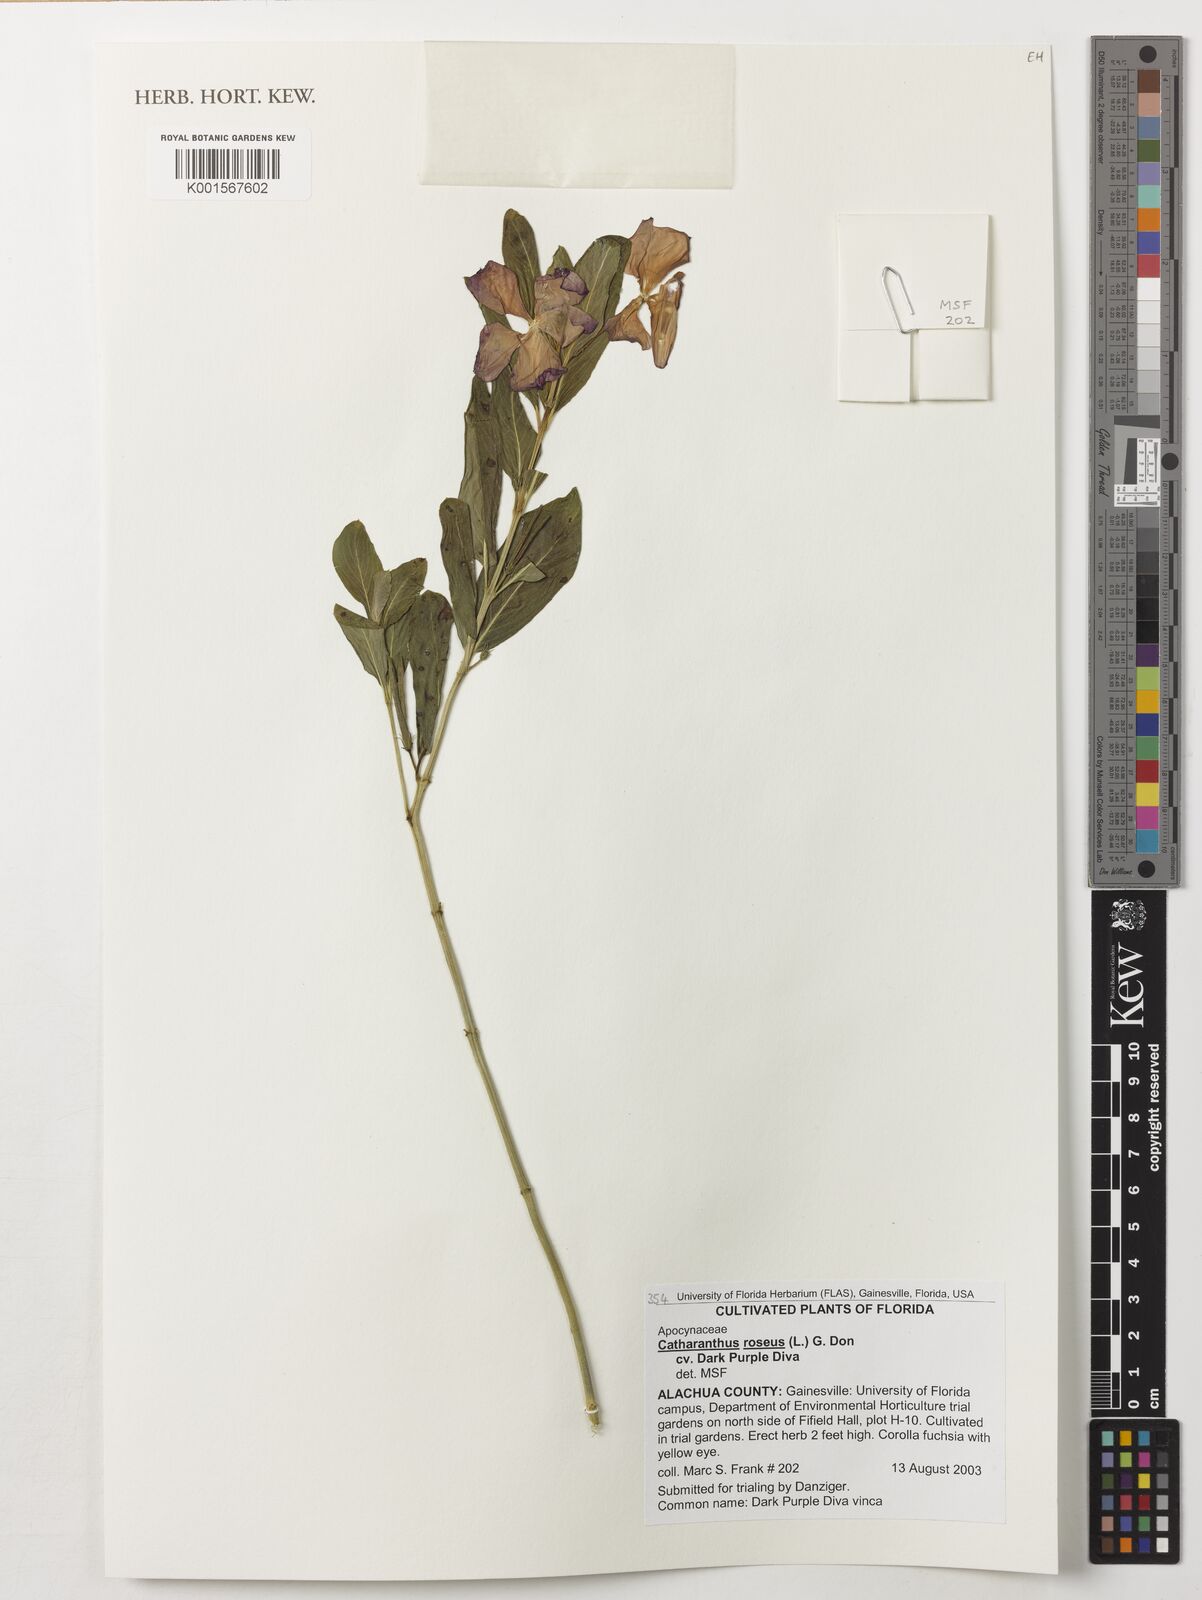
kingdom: Plantae
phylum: Tracheophyta
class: Magnoliopsida
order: Gentianales
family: Apocynaceae
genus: Catharanthus
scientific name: Catharanthus roseus
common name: Madagascar periwinkle
